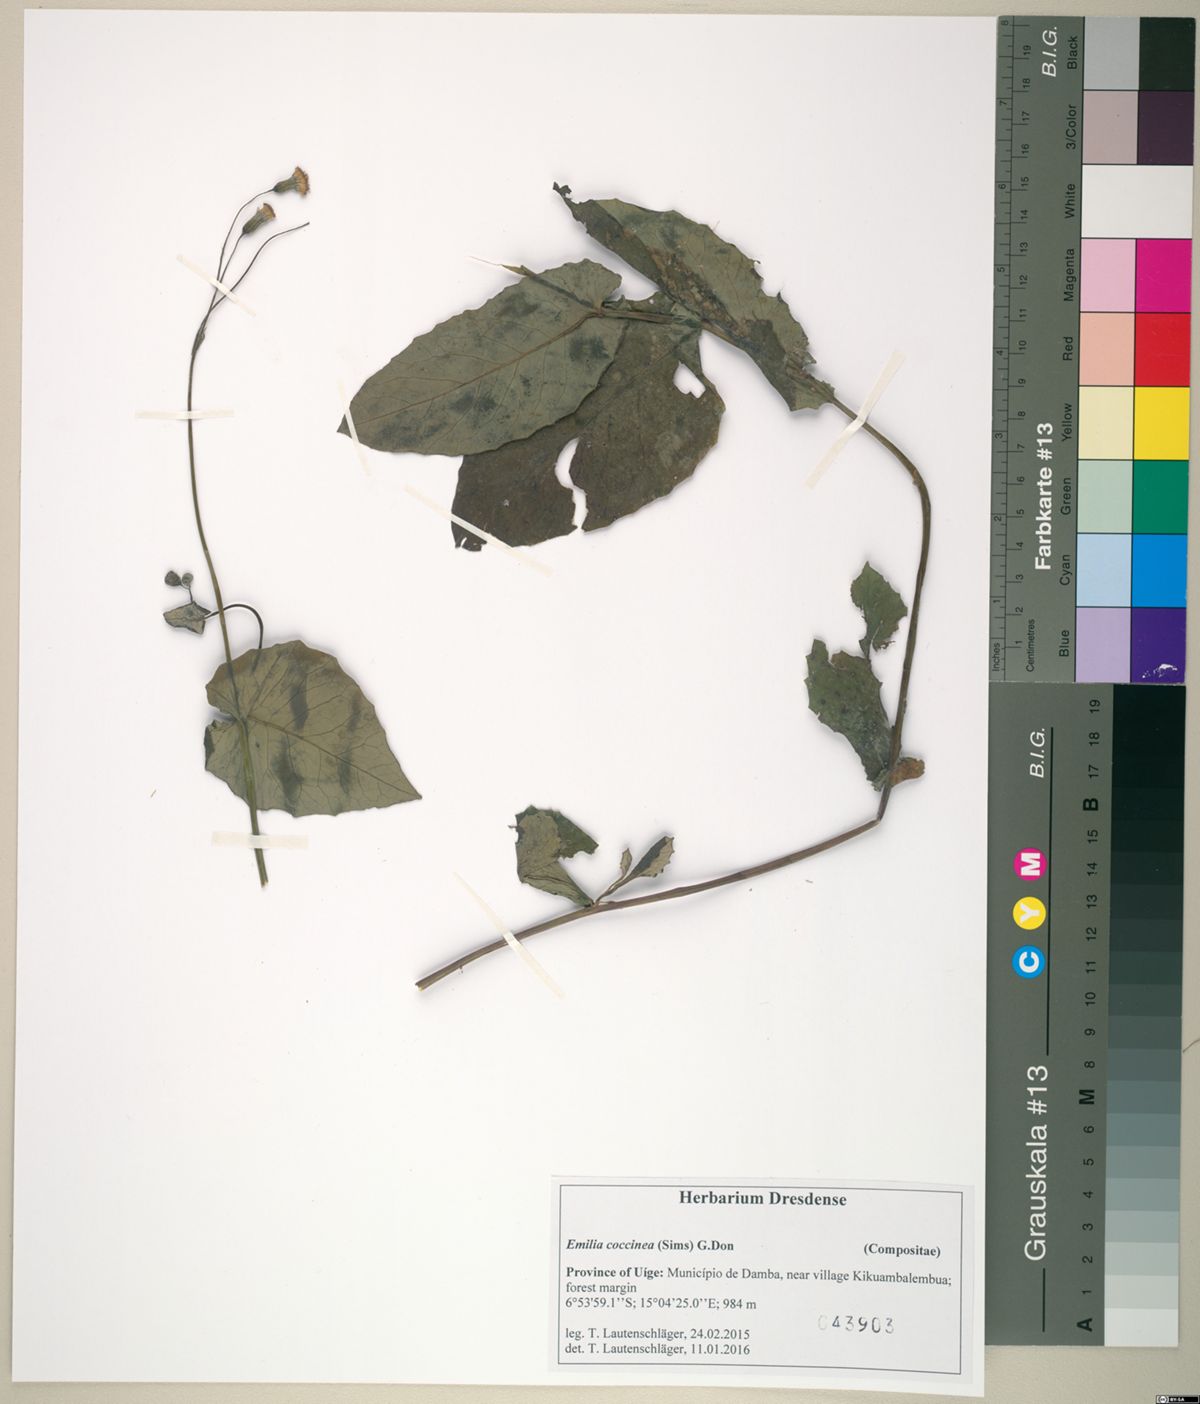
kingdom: Plantae
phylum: Tracheophyta
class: Magnoliopsida
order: Asterales
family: Asteraceae
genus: Emilia
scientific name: Emilia coccinea
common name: Scarlet tasselflower
